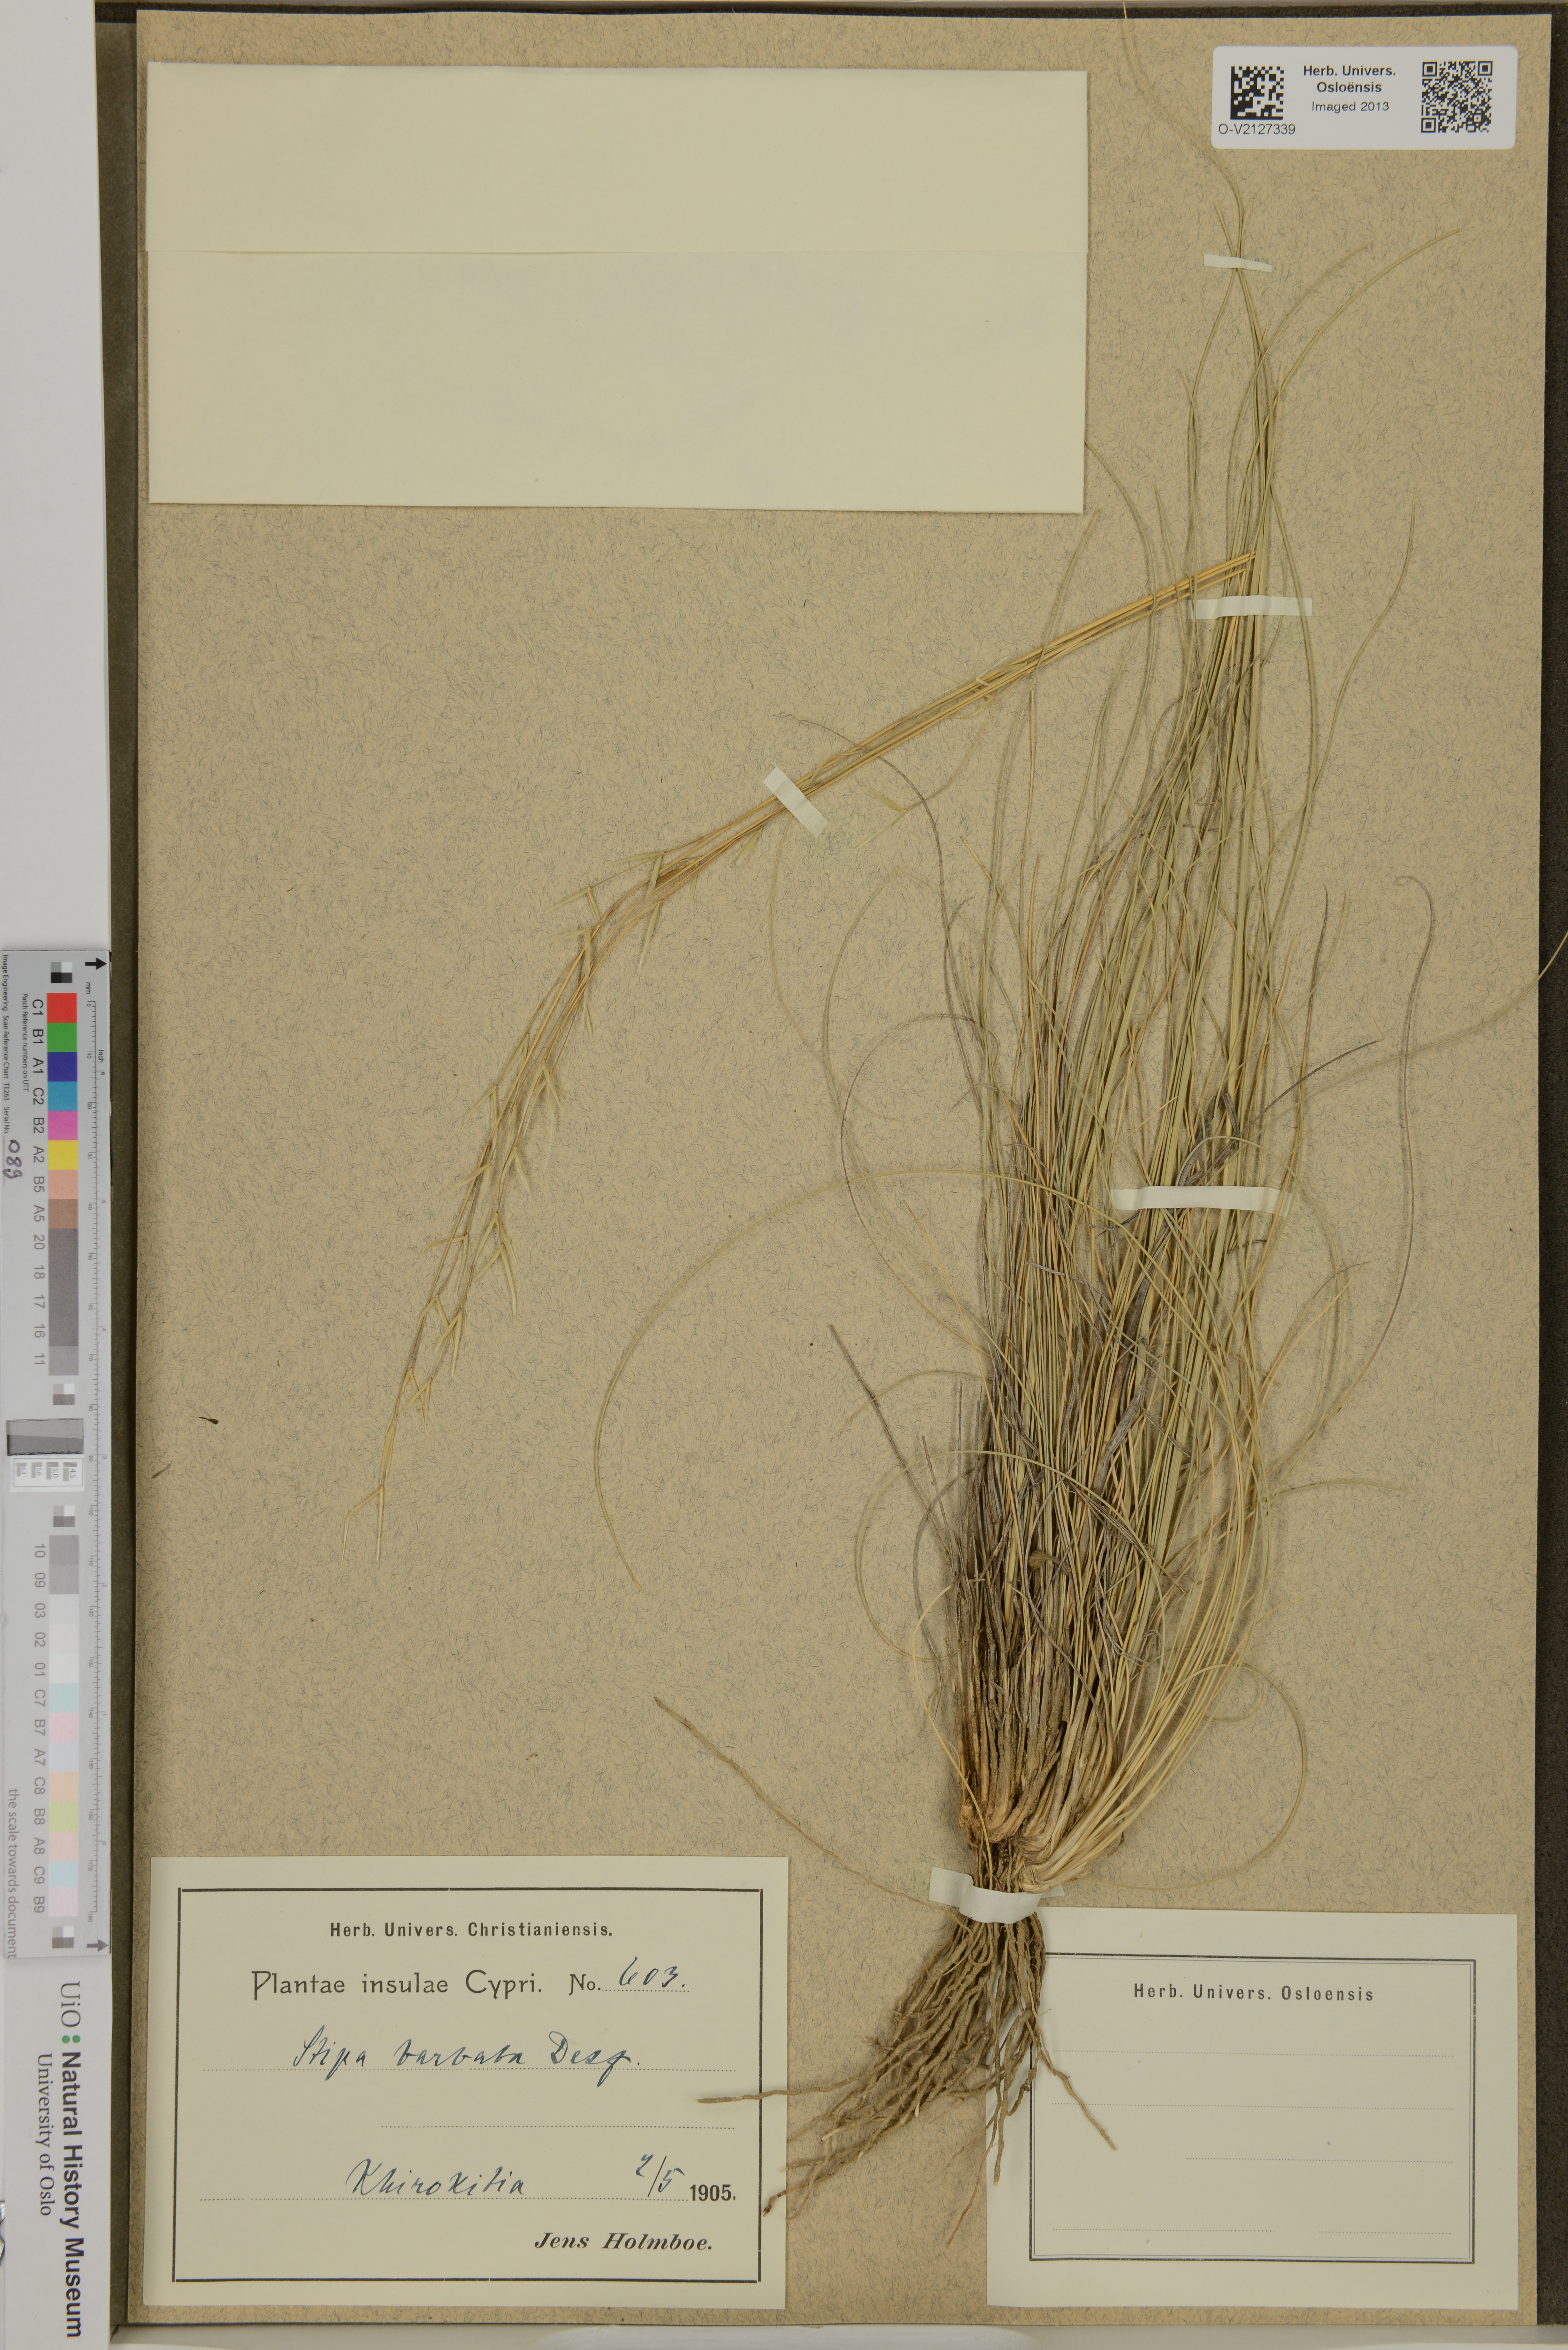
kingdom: Plantae
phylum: Tracheophyta
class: Liliopsida
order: Poales
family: Poaceae
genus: Stipa
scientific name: Stipa barbata
